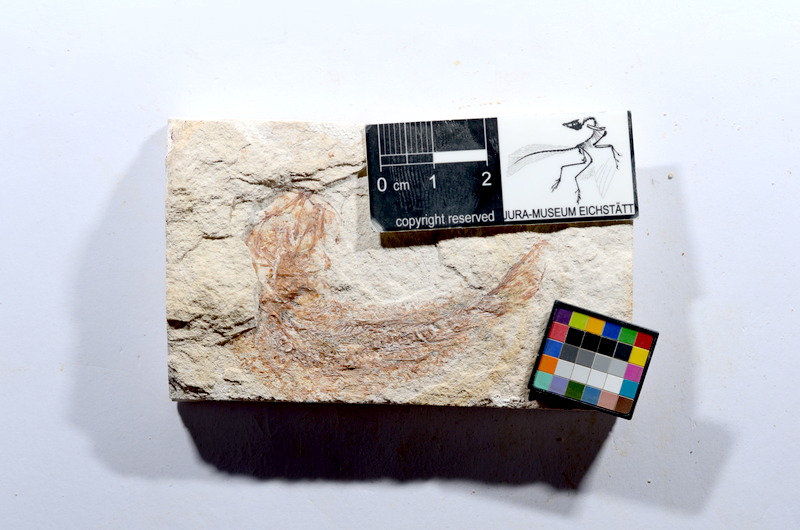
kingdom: Animalia
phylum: Chordata
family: Ascalaboidae
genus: Tharsis
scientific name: Tharsis dubius
